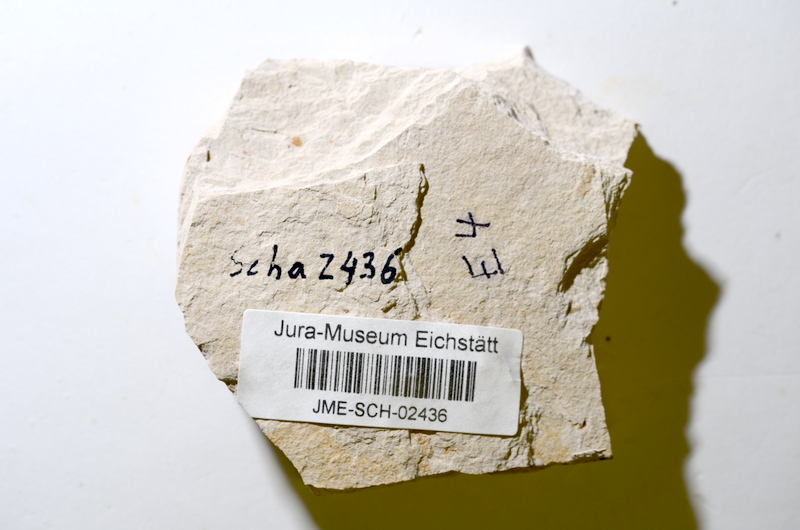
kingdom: Animalia
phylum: Chordata
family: Ascalaboidae
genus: Tharsis
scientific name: Tharsis dubius
